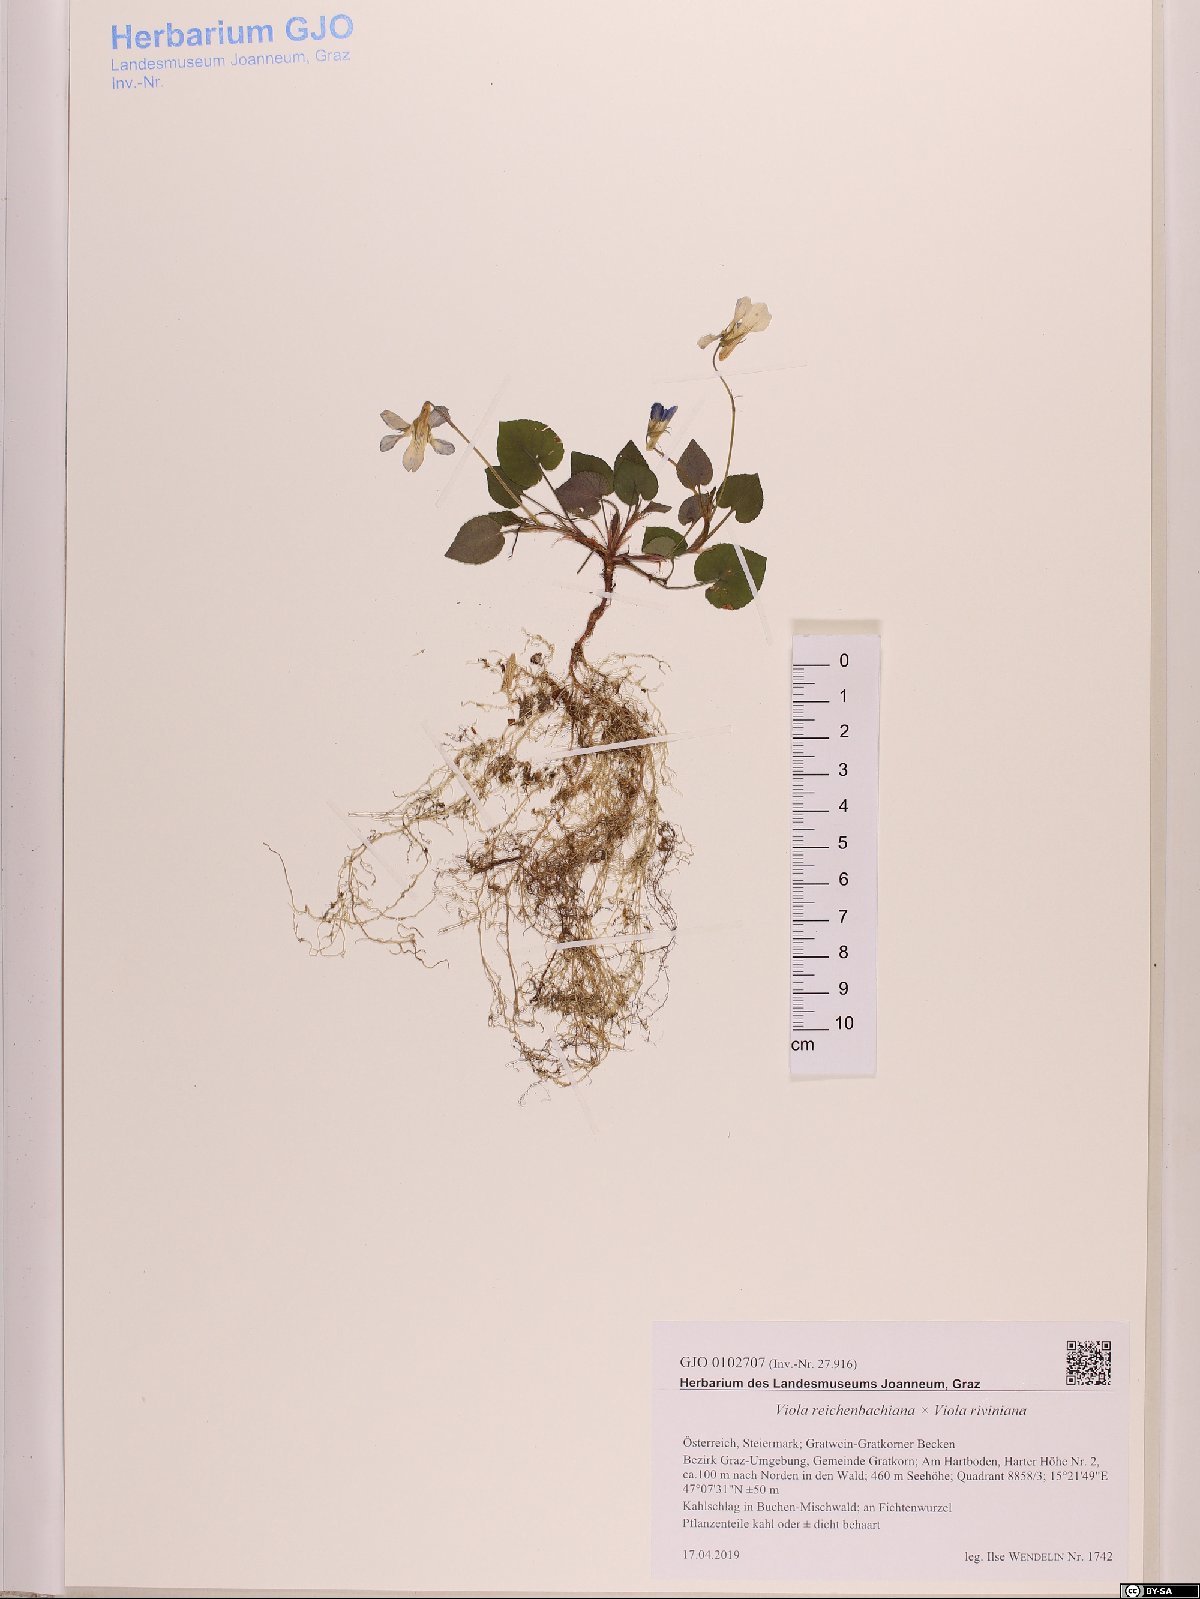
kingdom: Plantae
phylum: Tracheophyta
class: Magnoliopsida
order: Malpighiales
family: Violaceae
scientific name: Violaceae
